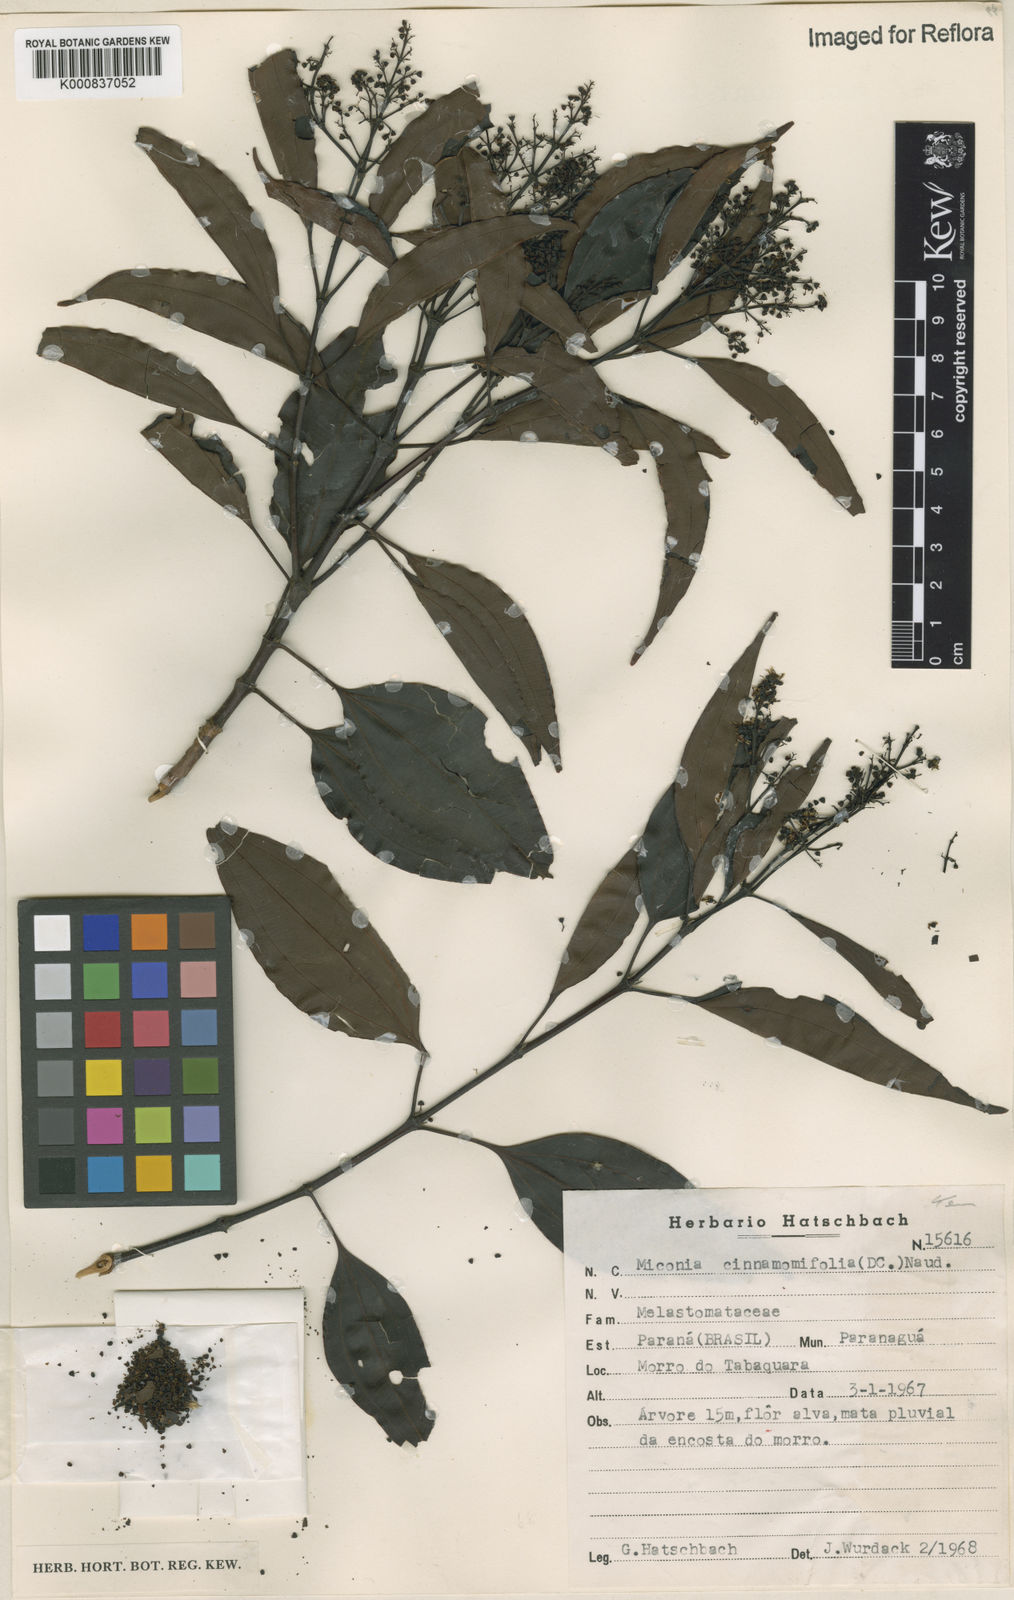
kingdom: Plantae
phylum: Tracheophyta
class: Magnoliopsida
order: Myrtales
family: Melastomataceae
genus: Miconia
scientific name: Miconia cinnamomifolia
